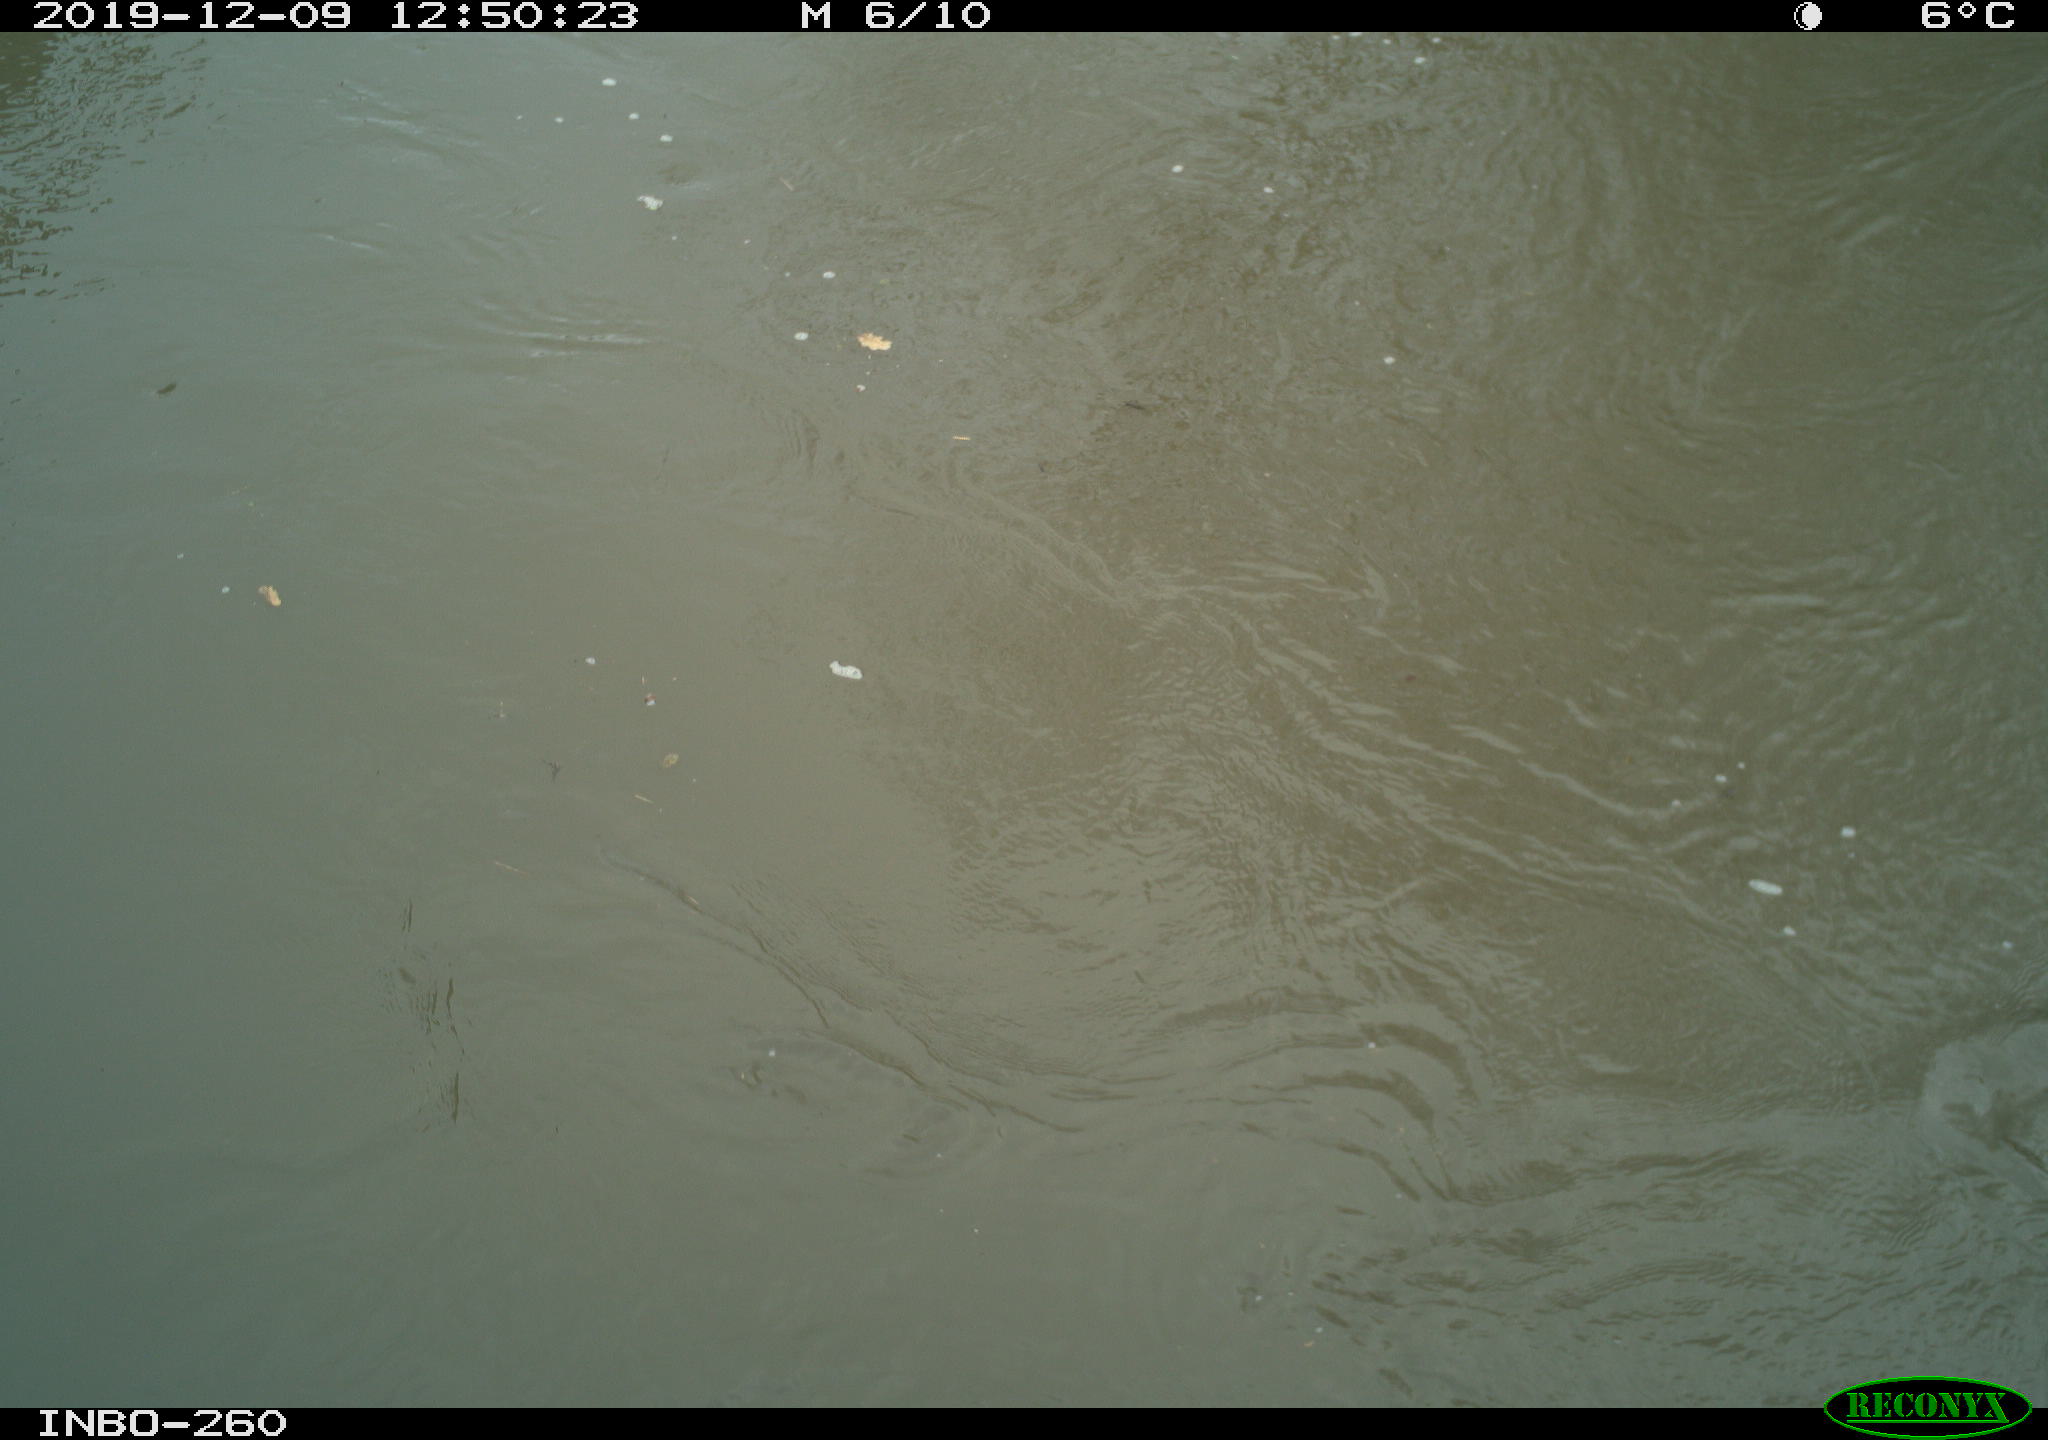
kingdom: Animalia
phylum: Chordata
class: Aves
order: Gruiformes
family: Rallidae
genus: Gallinula
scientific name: Gallinula chloropus
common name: Common moorhen
